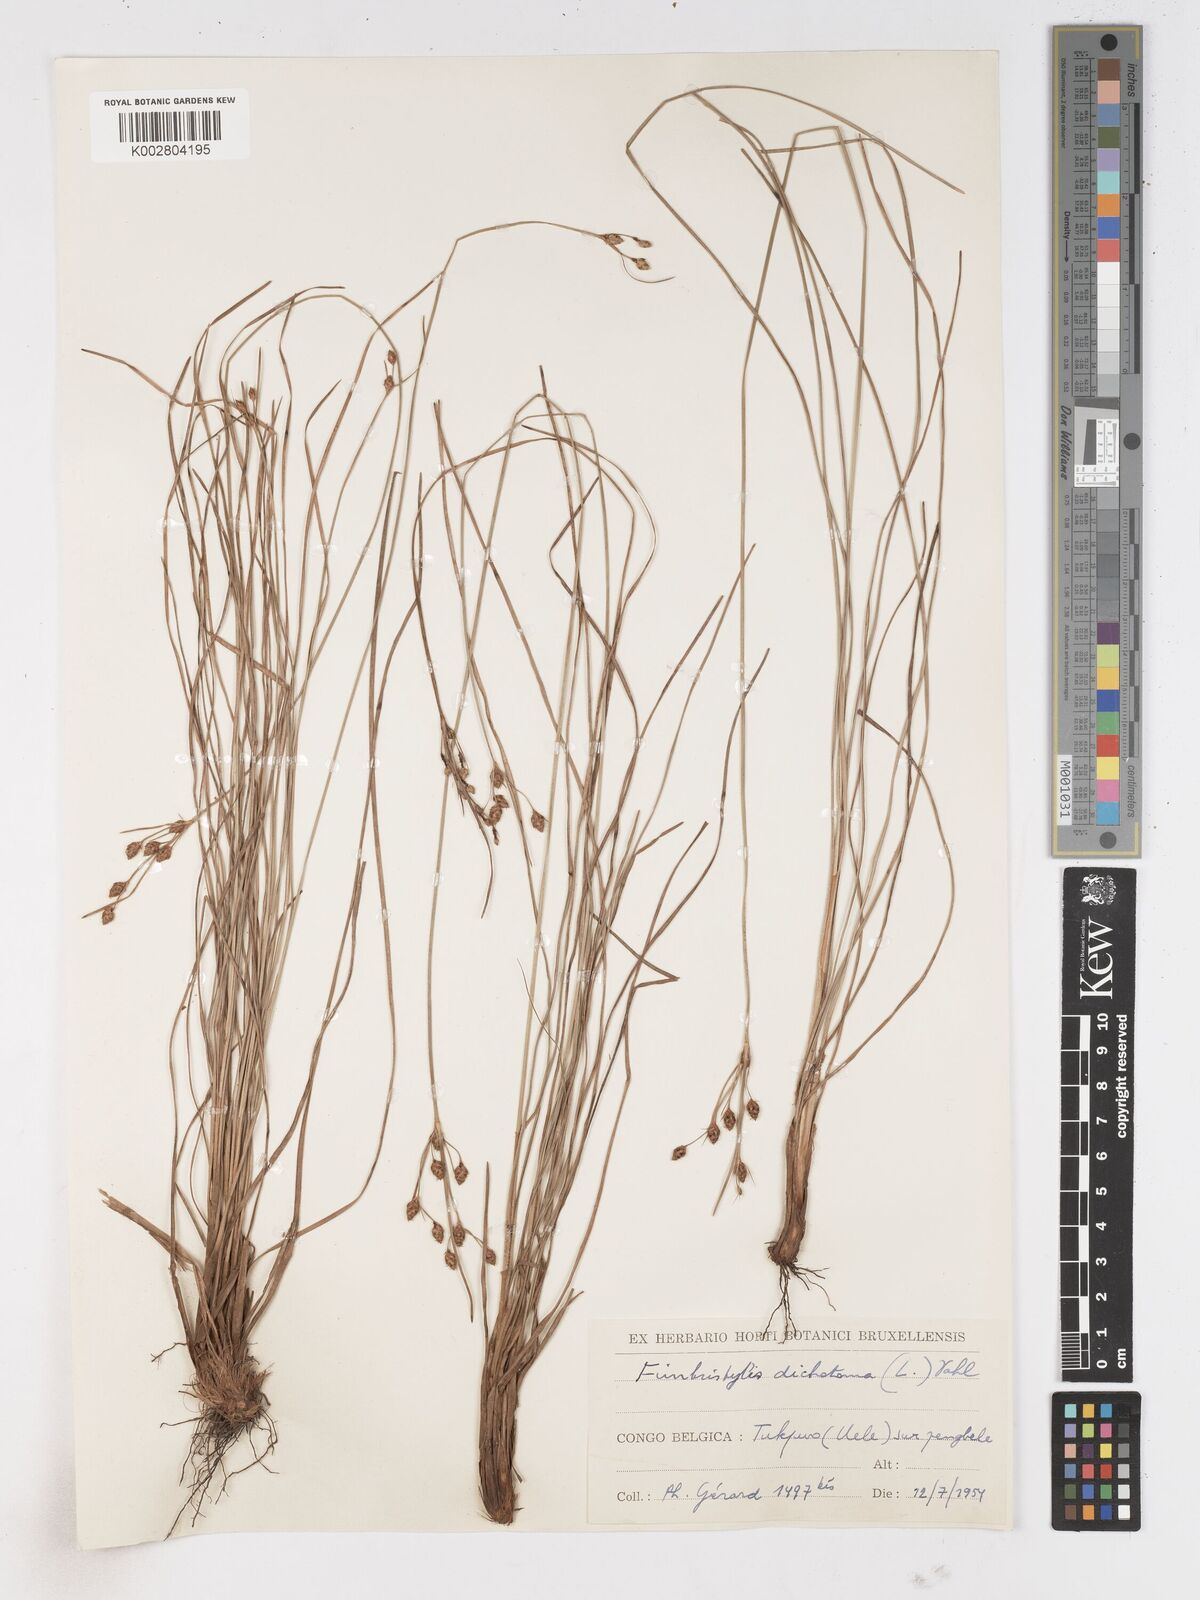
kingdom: Plantae
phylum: Tracheophyta
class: Liliopsida
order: Poales
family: Cyperaceae
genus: Fimbristylis
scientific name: Fimbristylis pilosa
